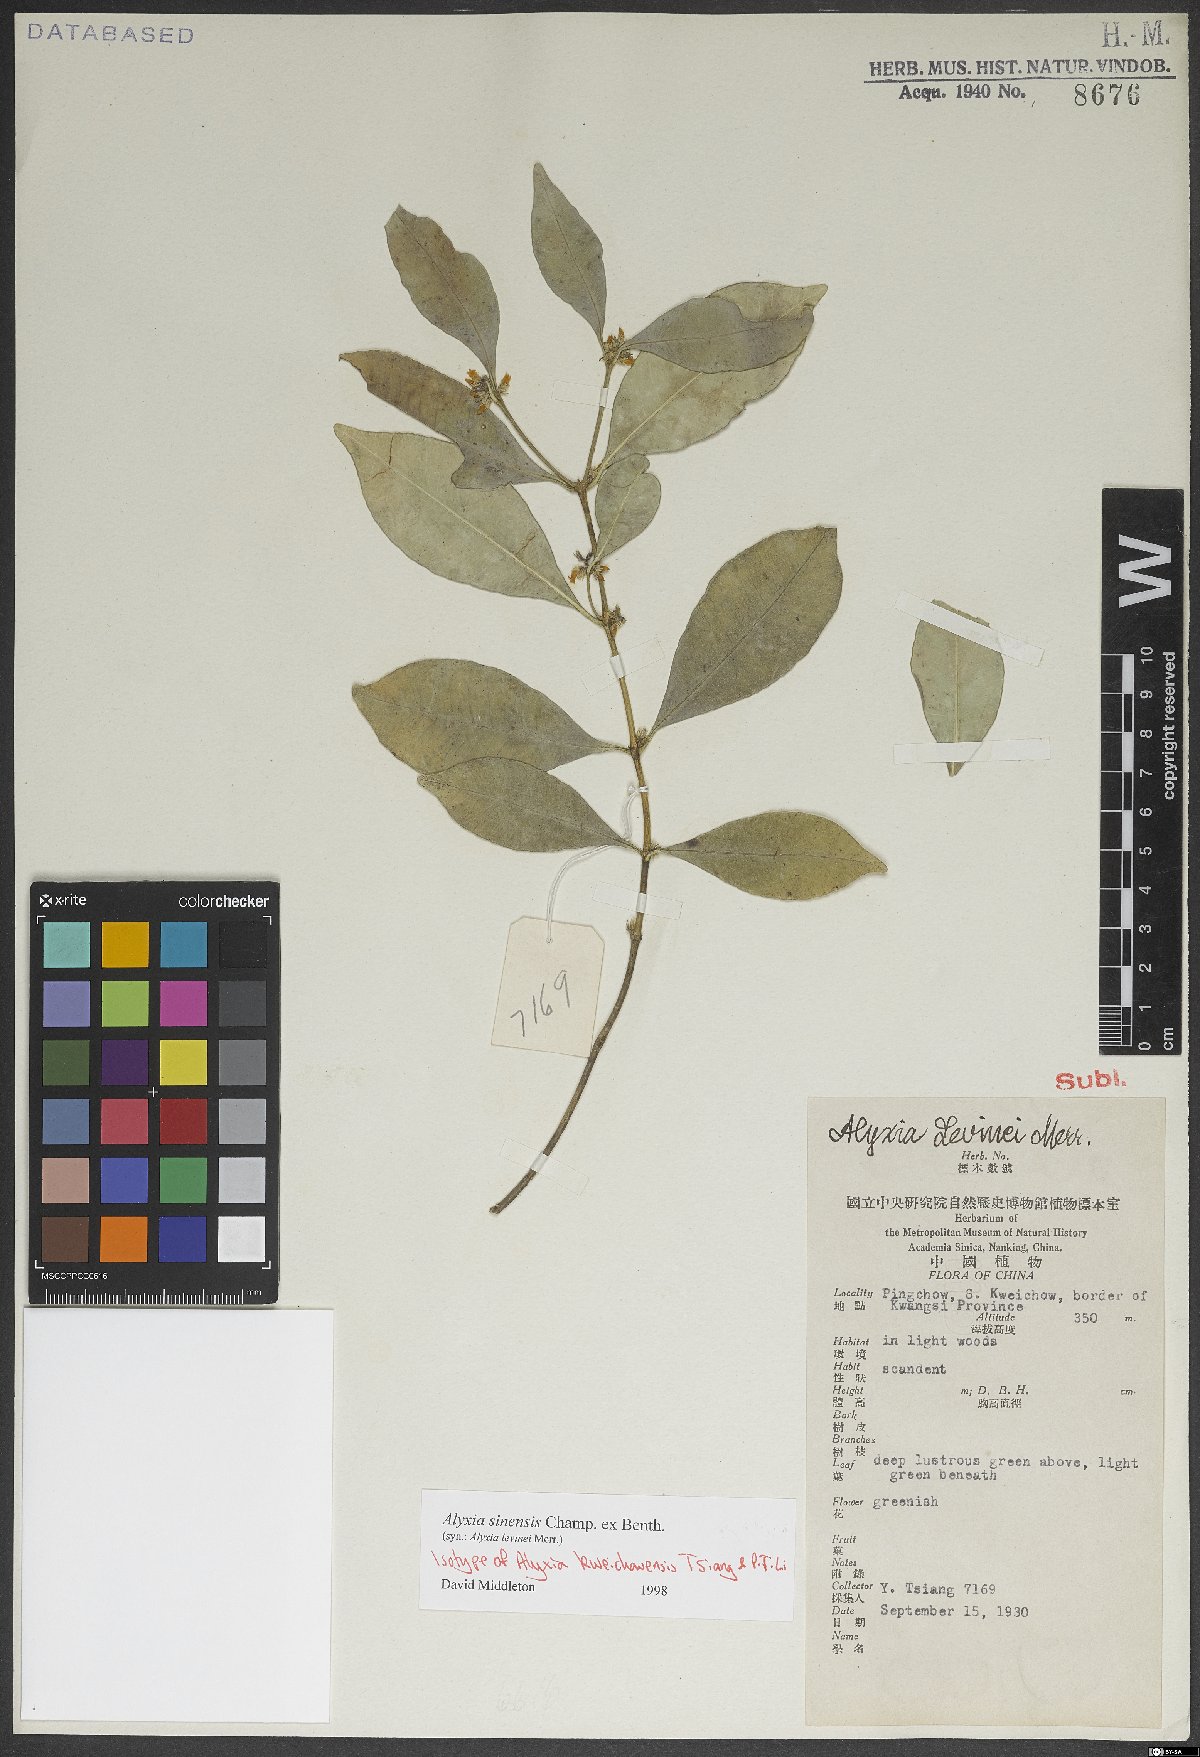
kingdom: Plantae
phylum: Tracheophyta
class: Magnoliopsida
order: Gentianales
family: Apocynaceae
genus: Alyxia
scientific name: Alyxia sinensis
